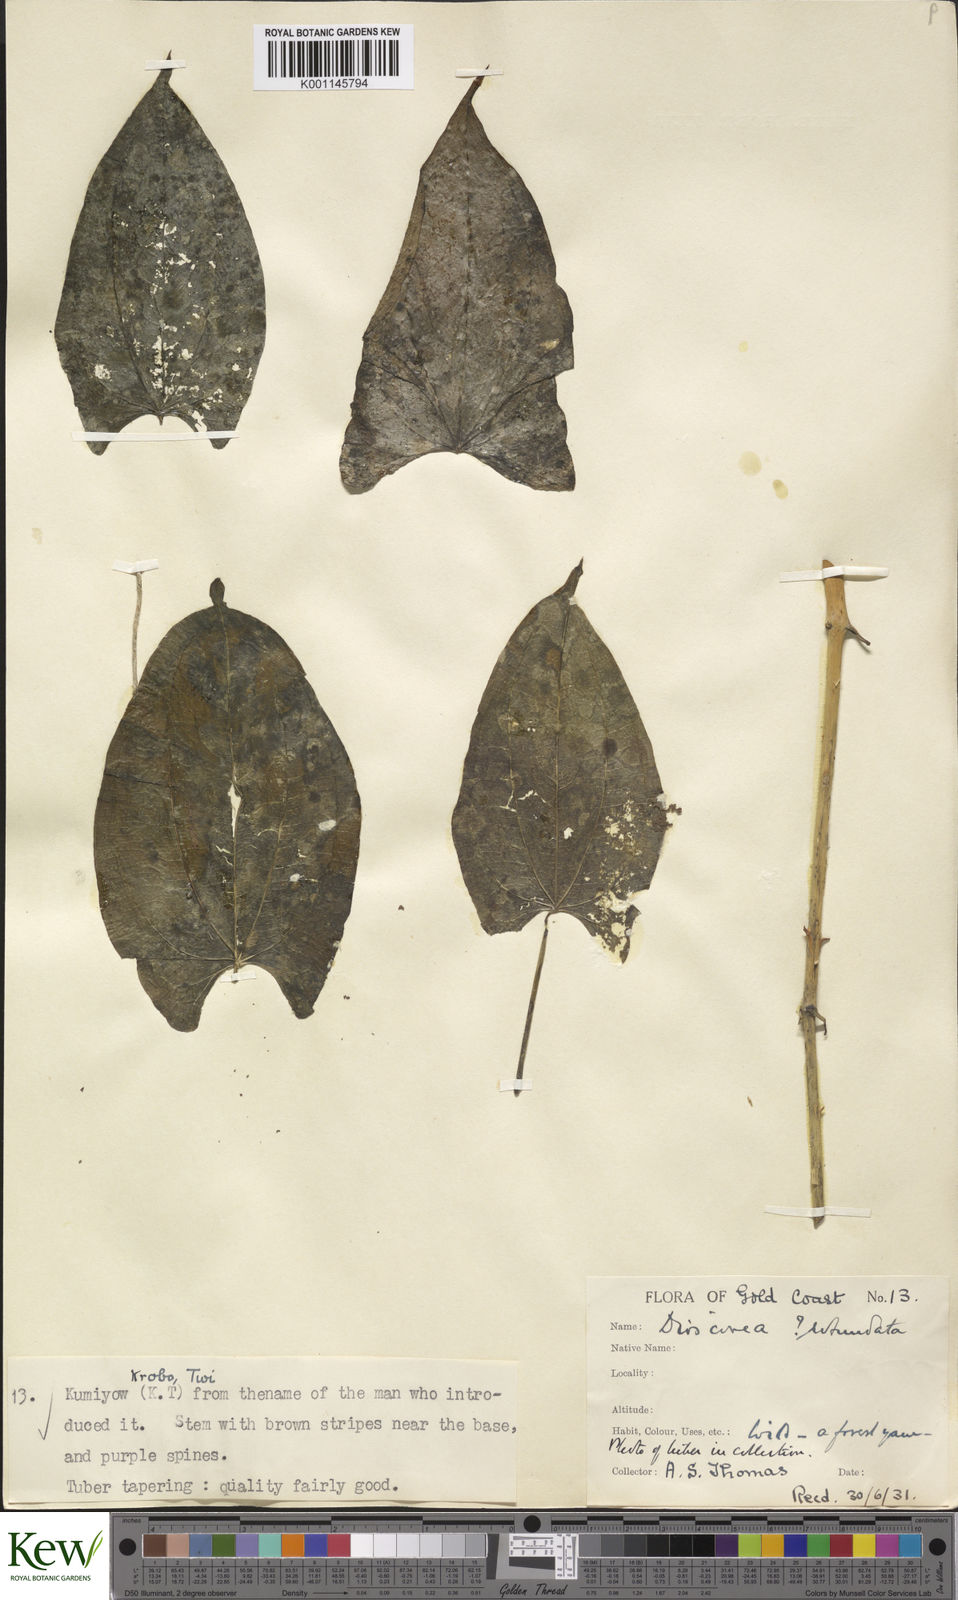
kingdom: Plantae
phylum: Tracheophyta
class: Liliopsida
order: Dioscoreales
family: Dioscoreaceae
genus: Dioscorea
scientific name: Dioscorea cayenensis
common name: Attoto yam
